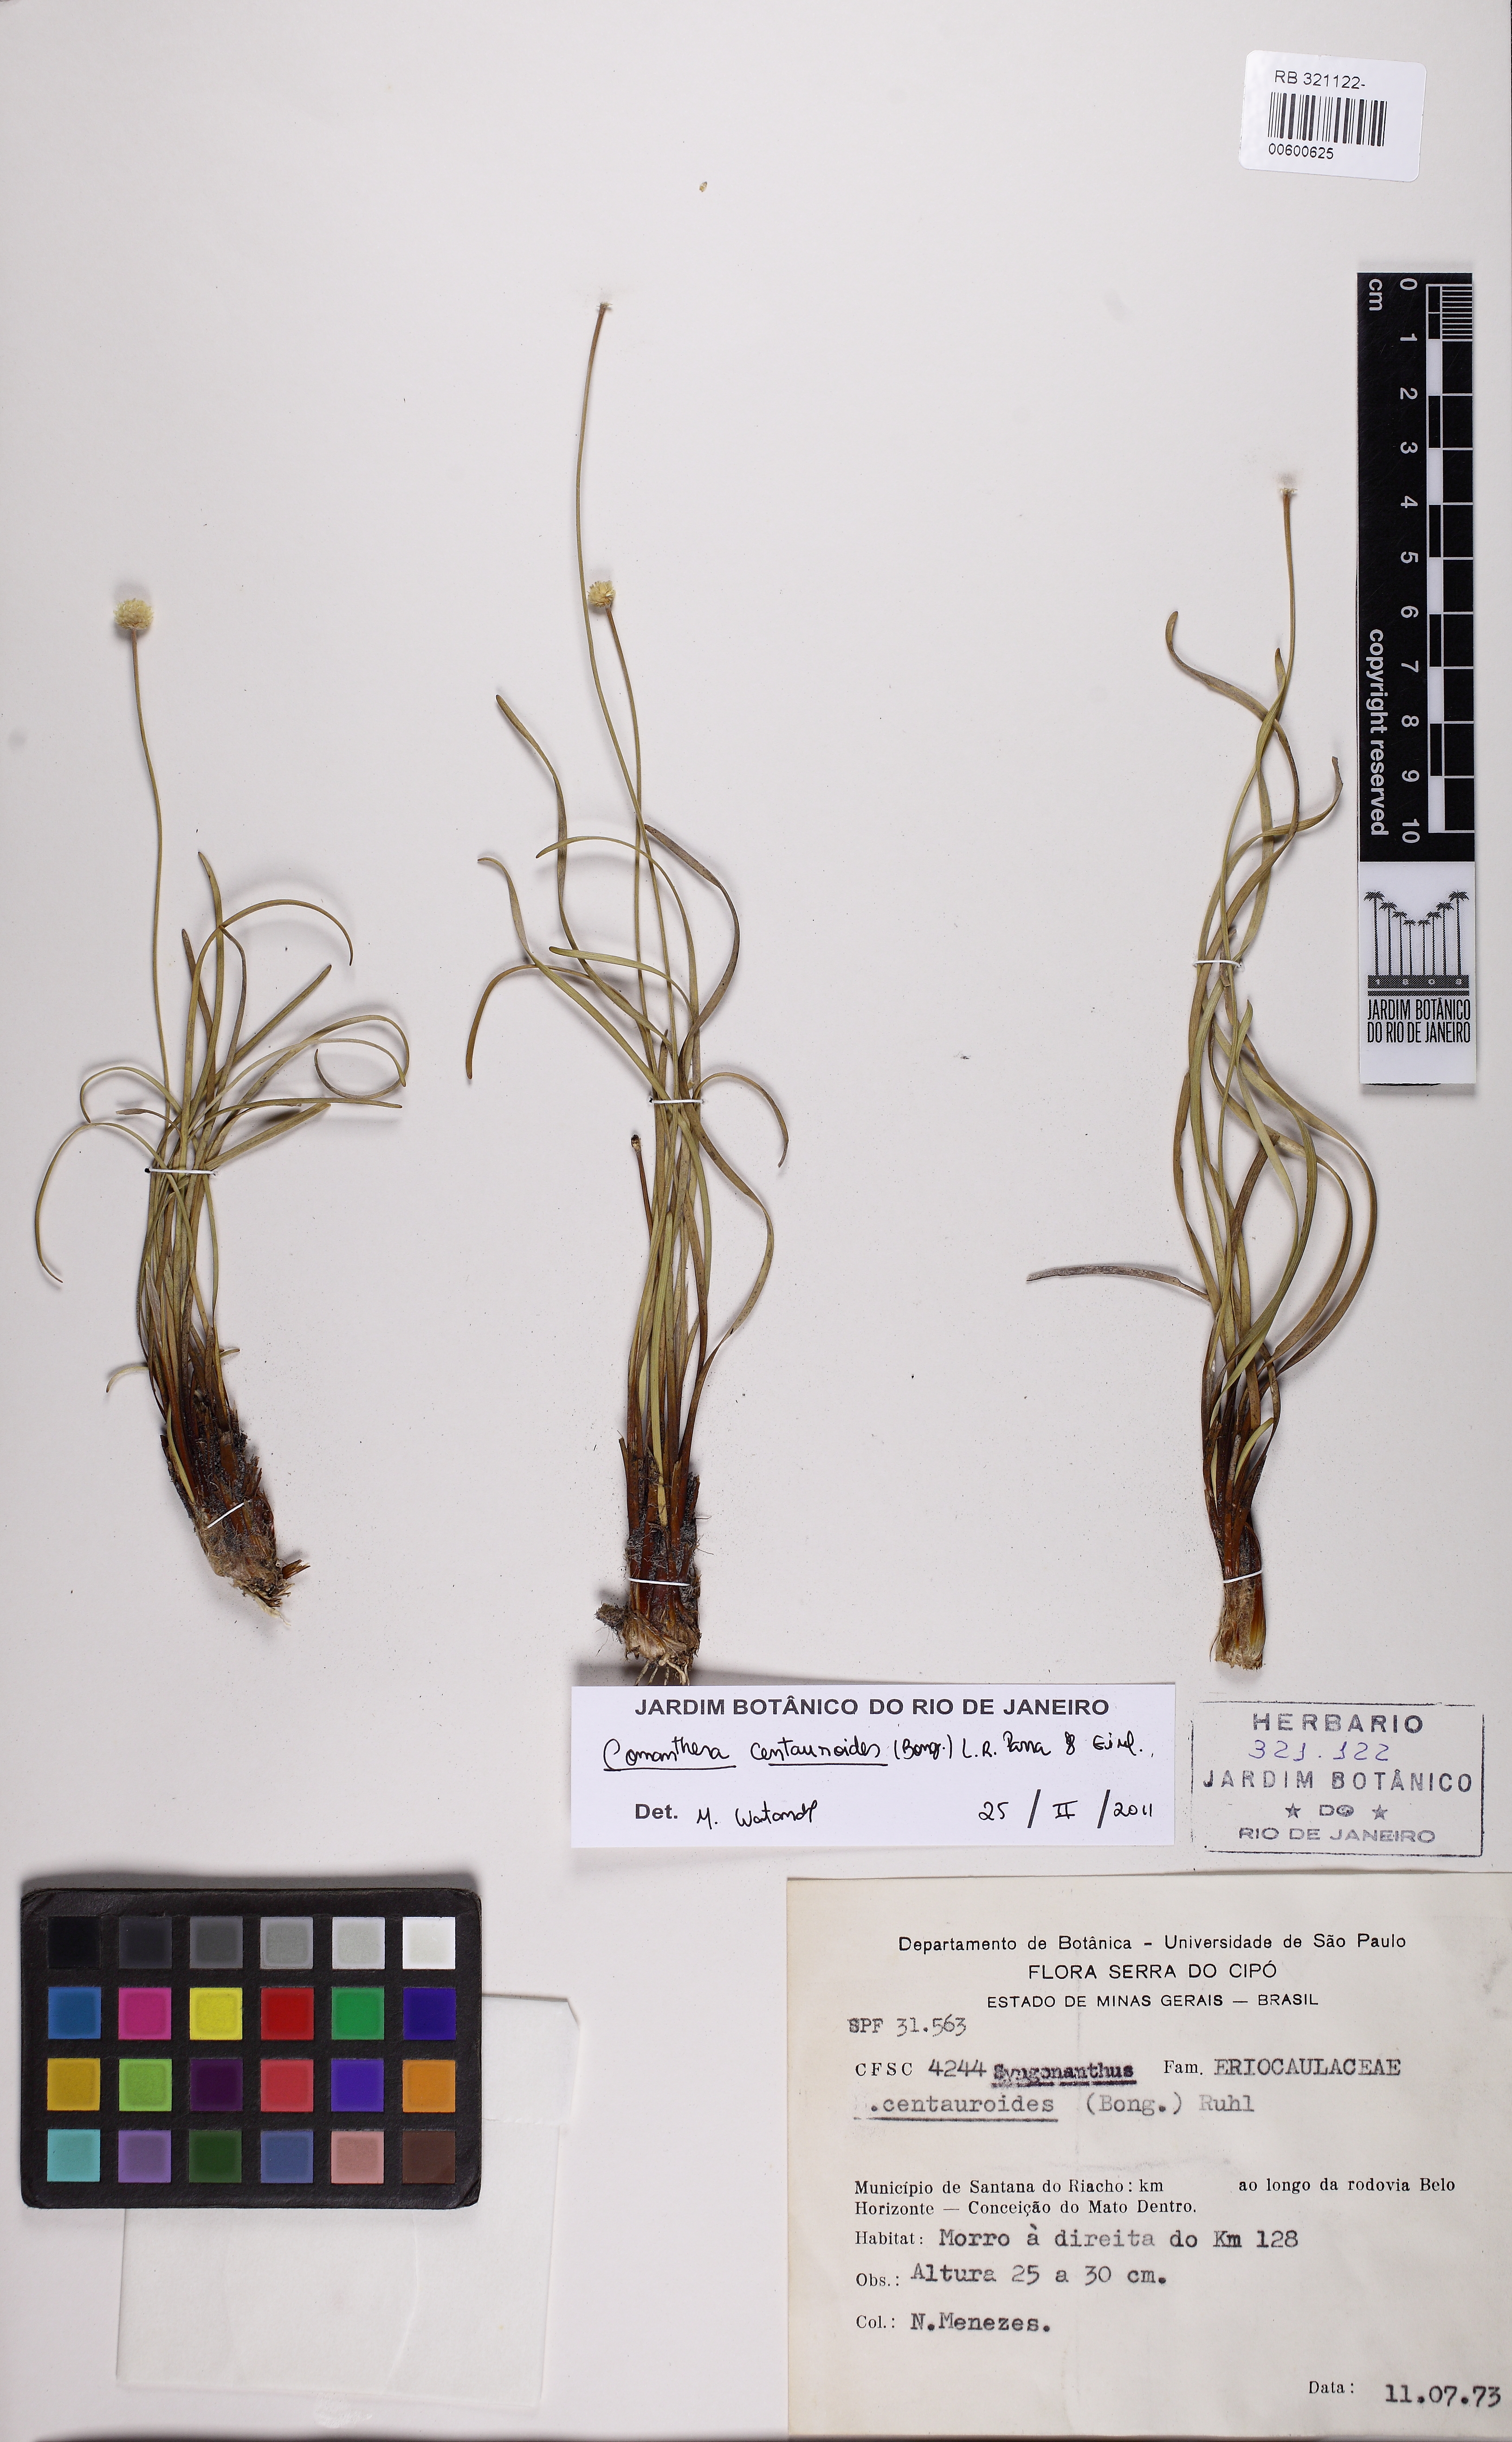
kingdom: Plantae
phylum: Tracheophyta
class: Liliopsida
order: Poales
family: Eriocaulaceae
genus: Comanthera
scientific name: Comanthera centauroides
